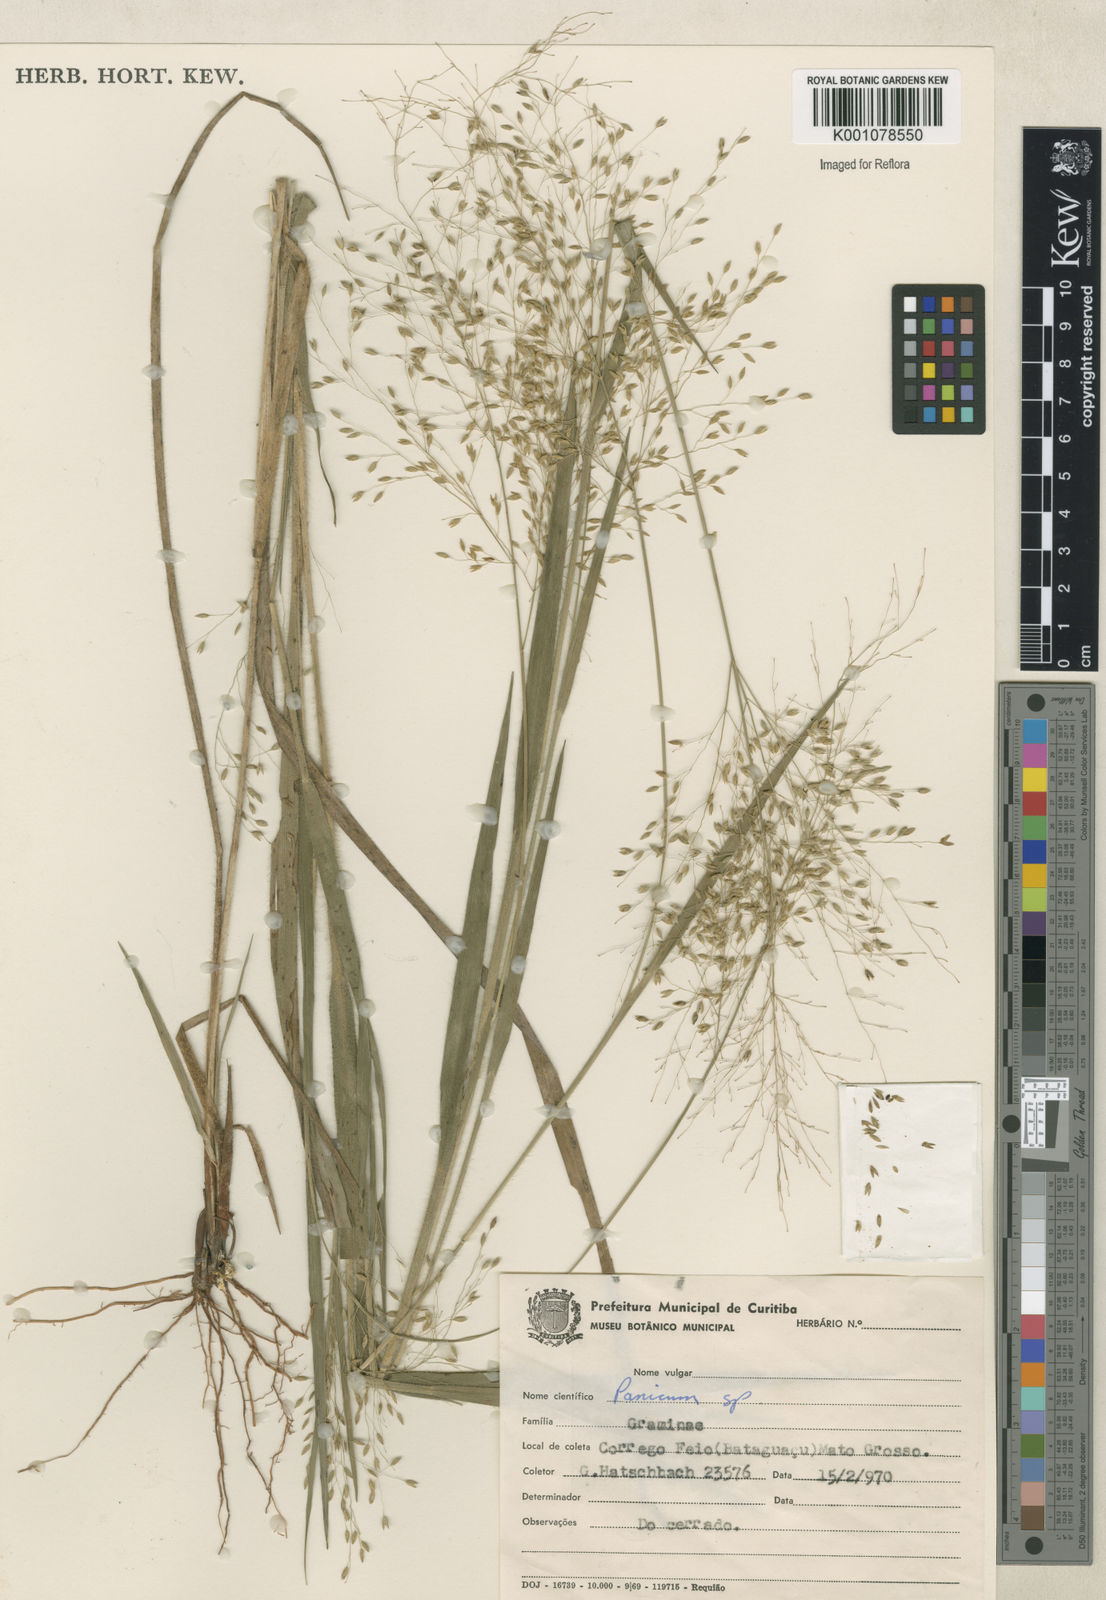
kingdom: Plantae
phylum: Tracheophyta
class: Liliopsida
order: Poales
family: Poaceae
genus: Panicum
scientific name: Panicum
